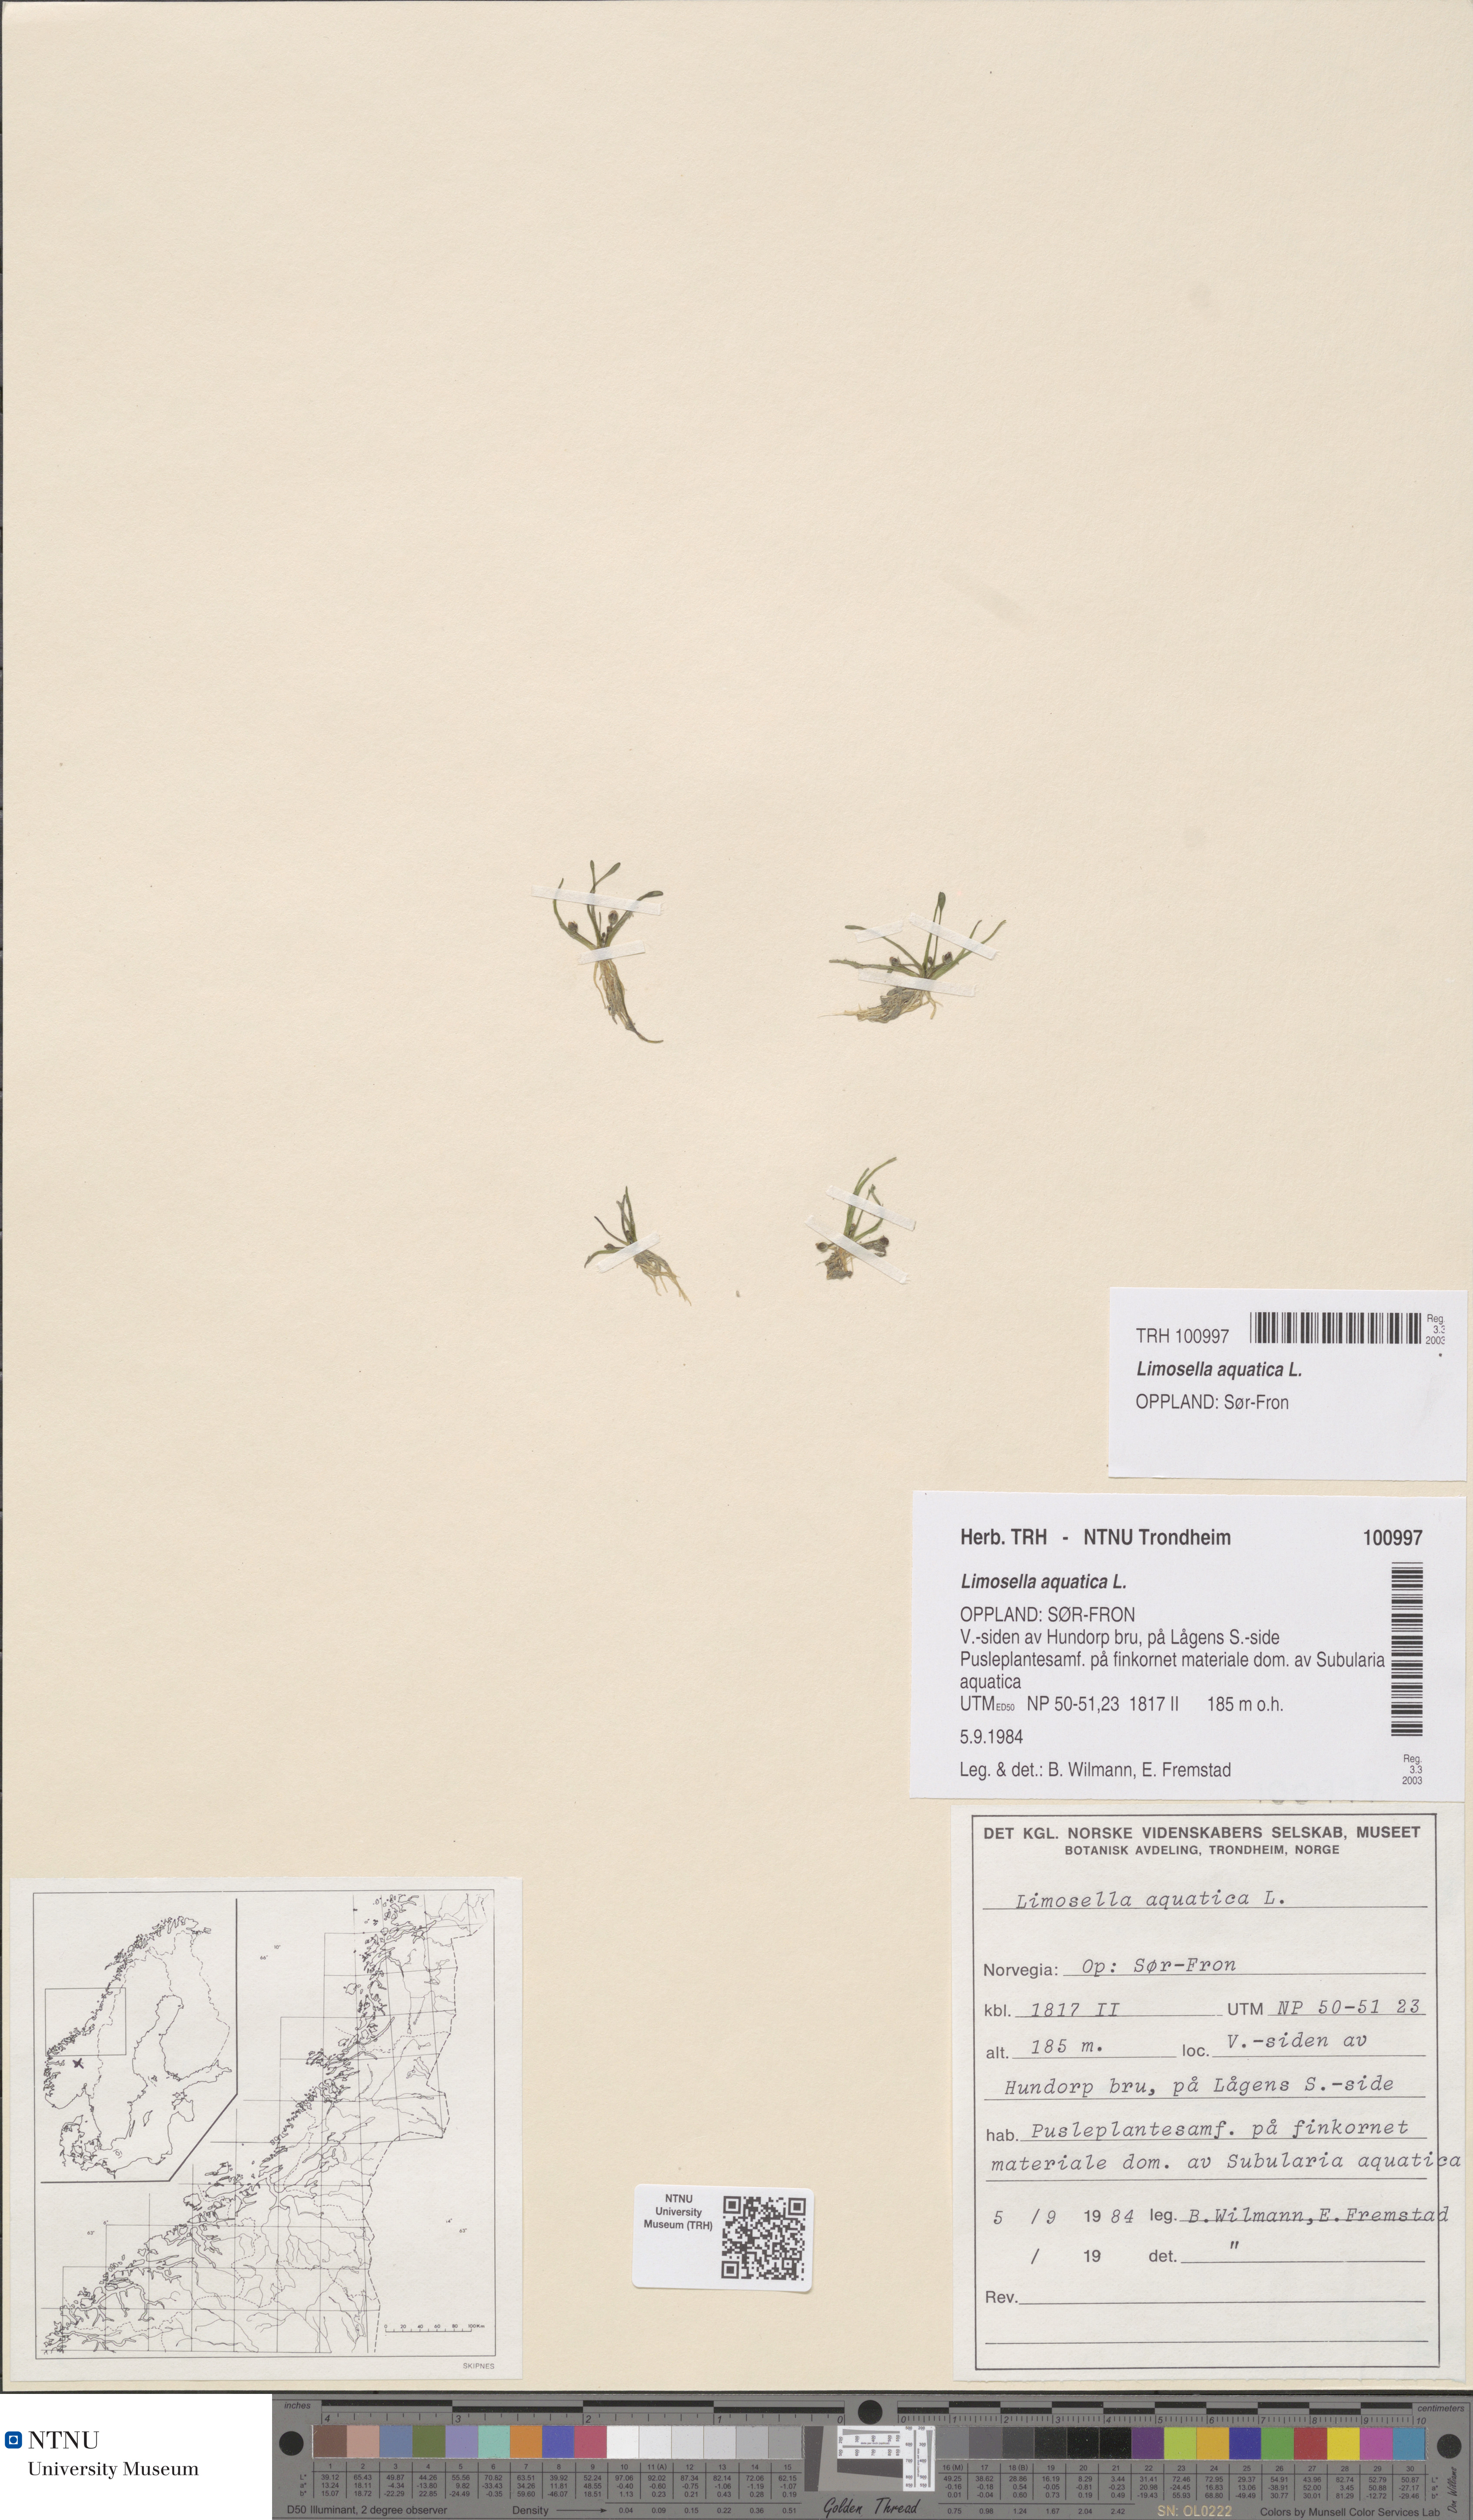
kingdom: Plantae
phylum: Tracheophyta
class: Magnoliopsida
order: Lamiales
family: Scrophulariaceae
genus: Limosella
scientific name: Limosella aquatica
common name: Mudwort
